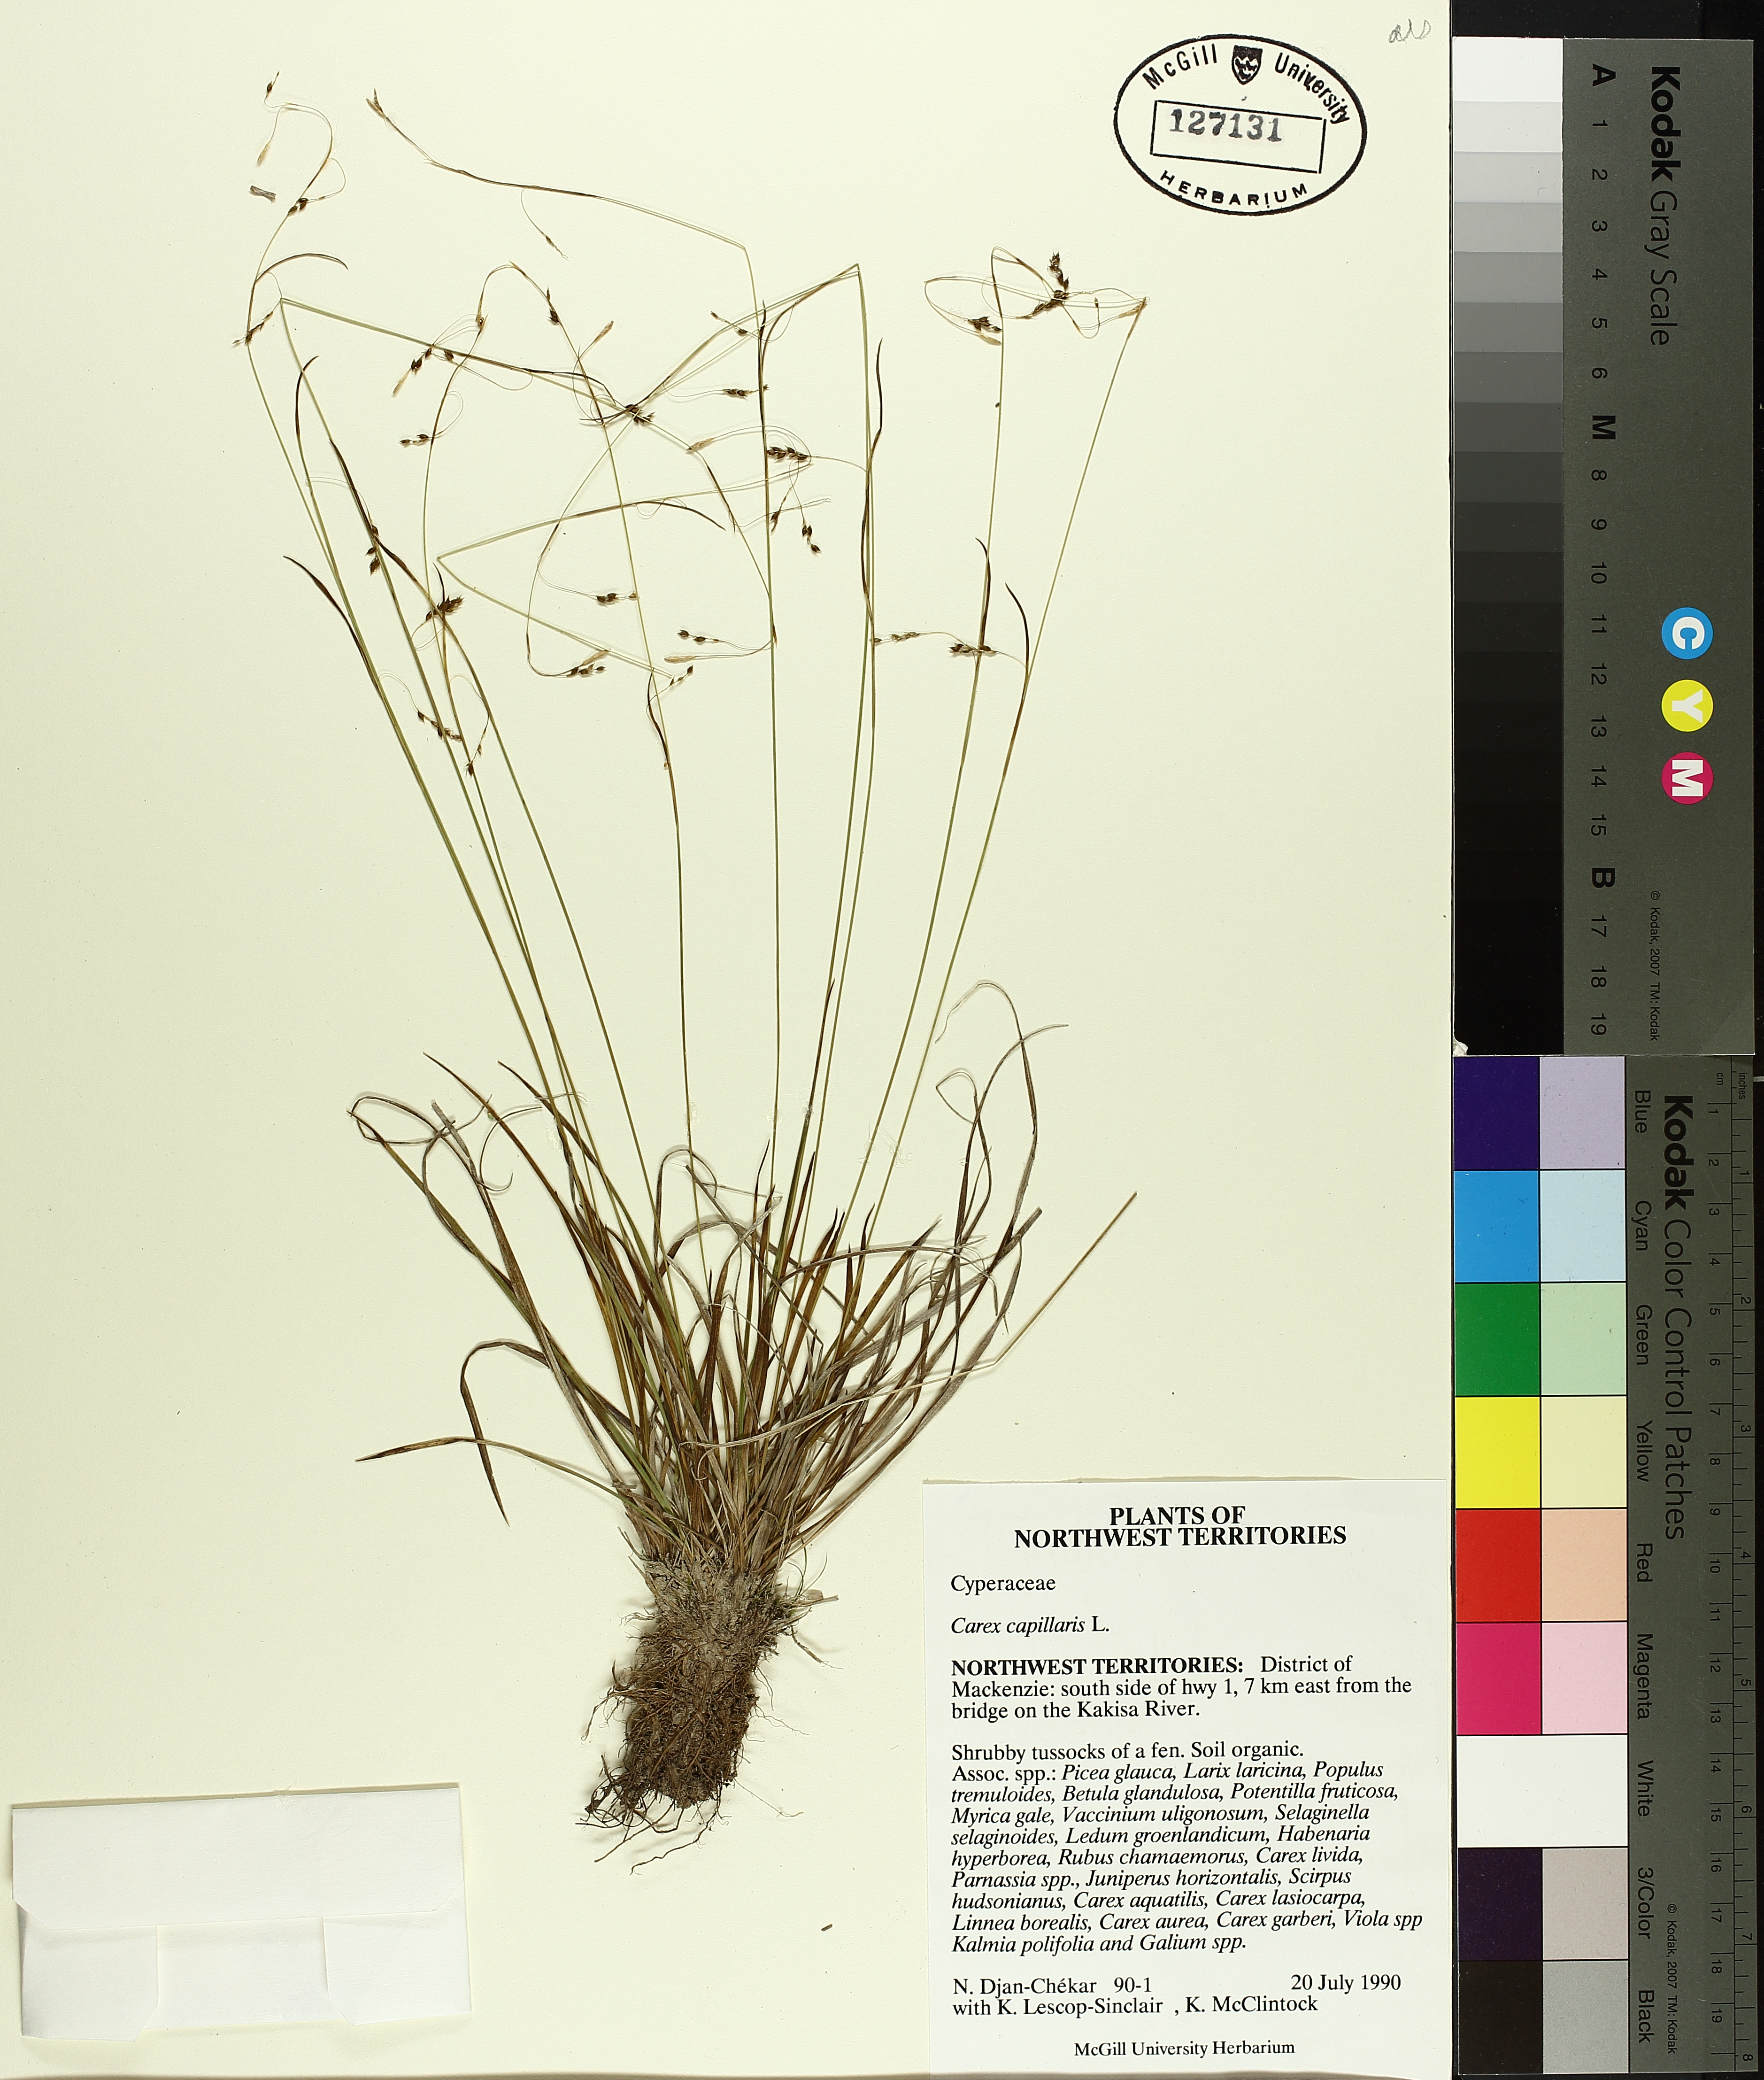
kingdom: Plantae
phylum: Tracheophyta
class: Liliopsida
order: Poales
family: Cyperaceae
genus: Carex
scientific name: Carex capillaris
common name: Hair sedge
